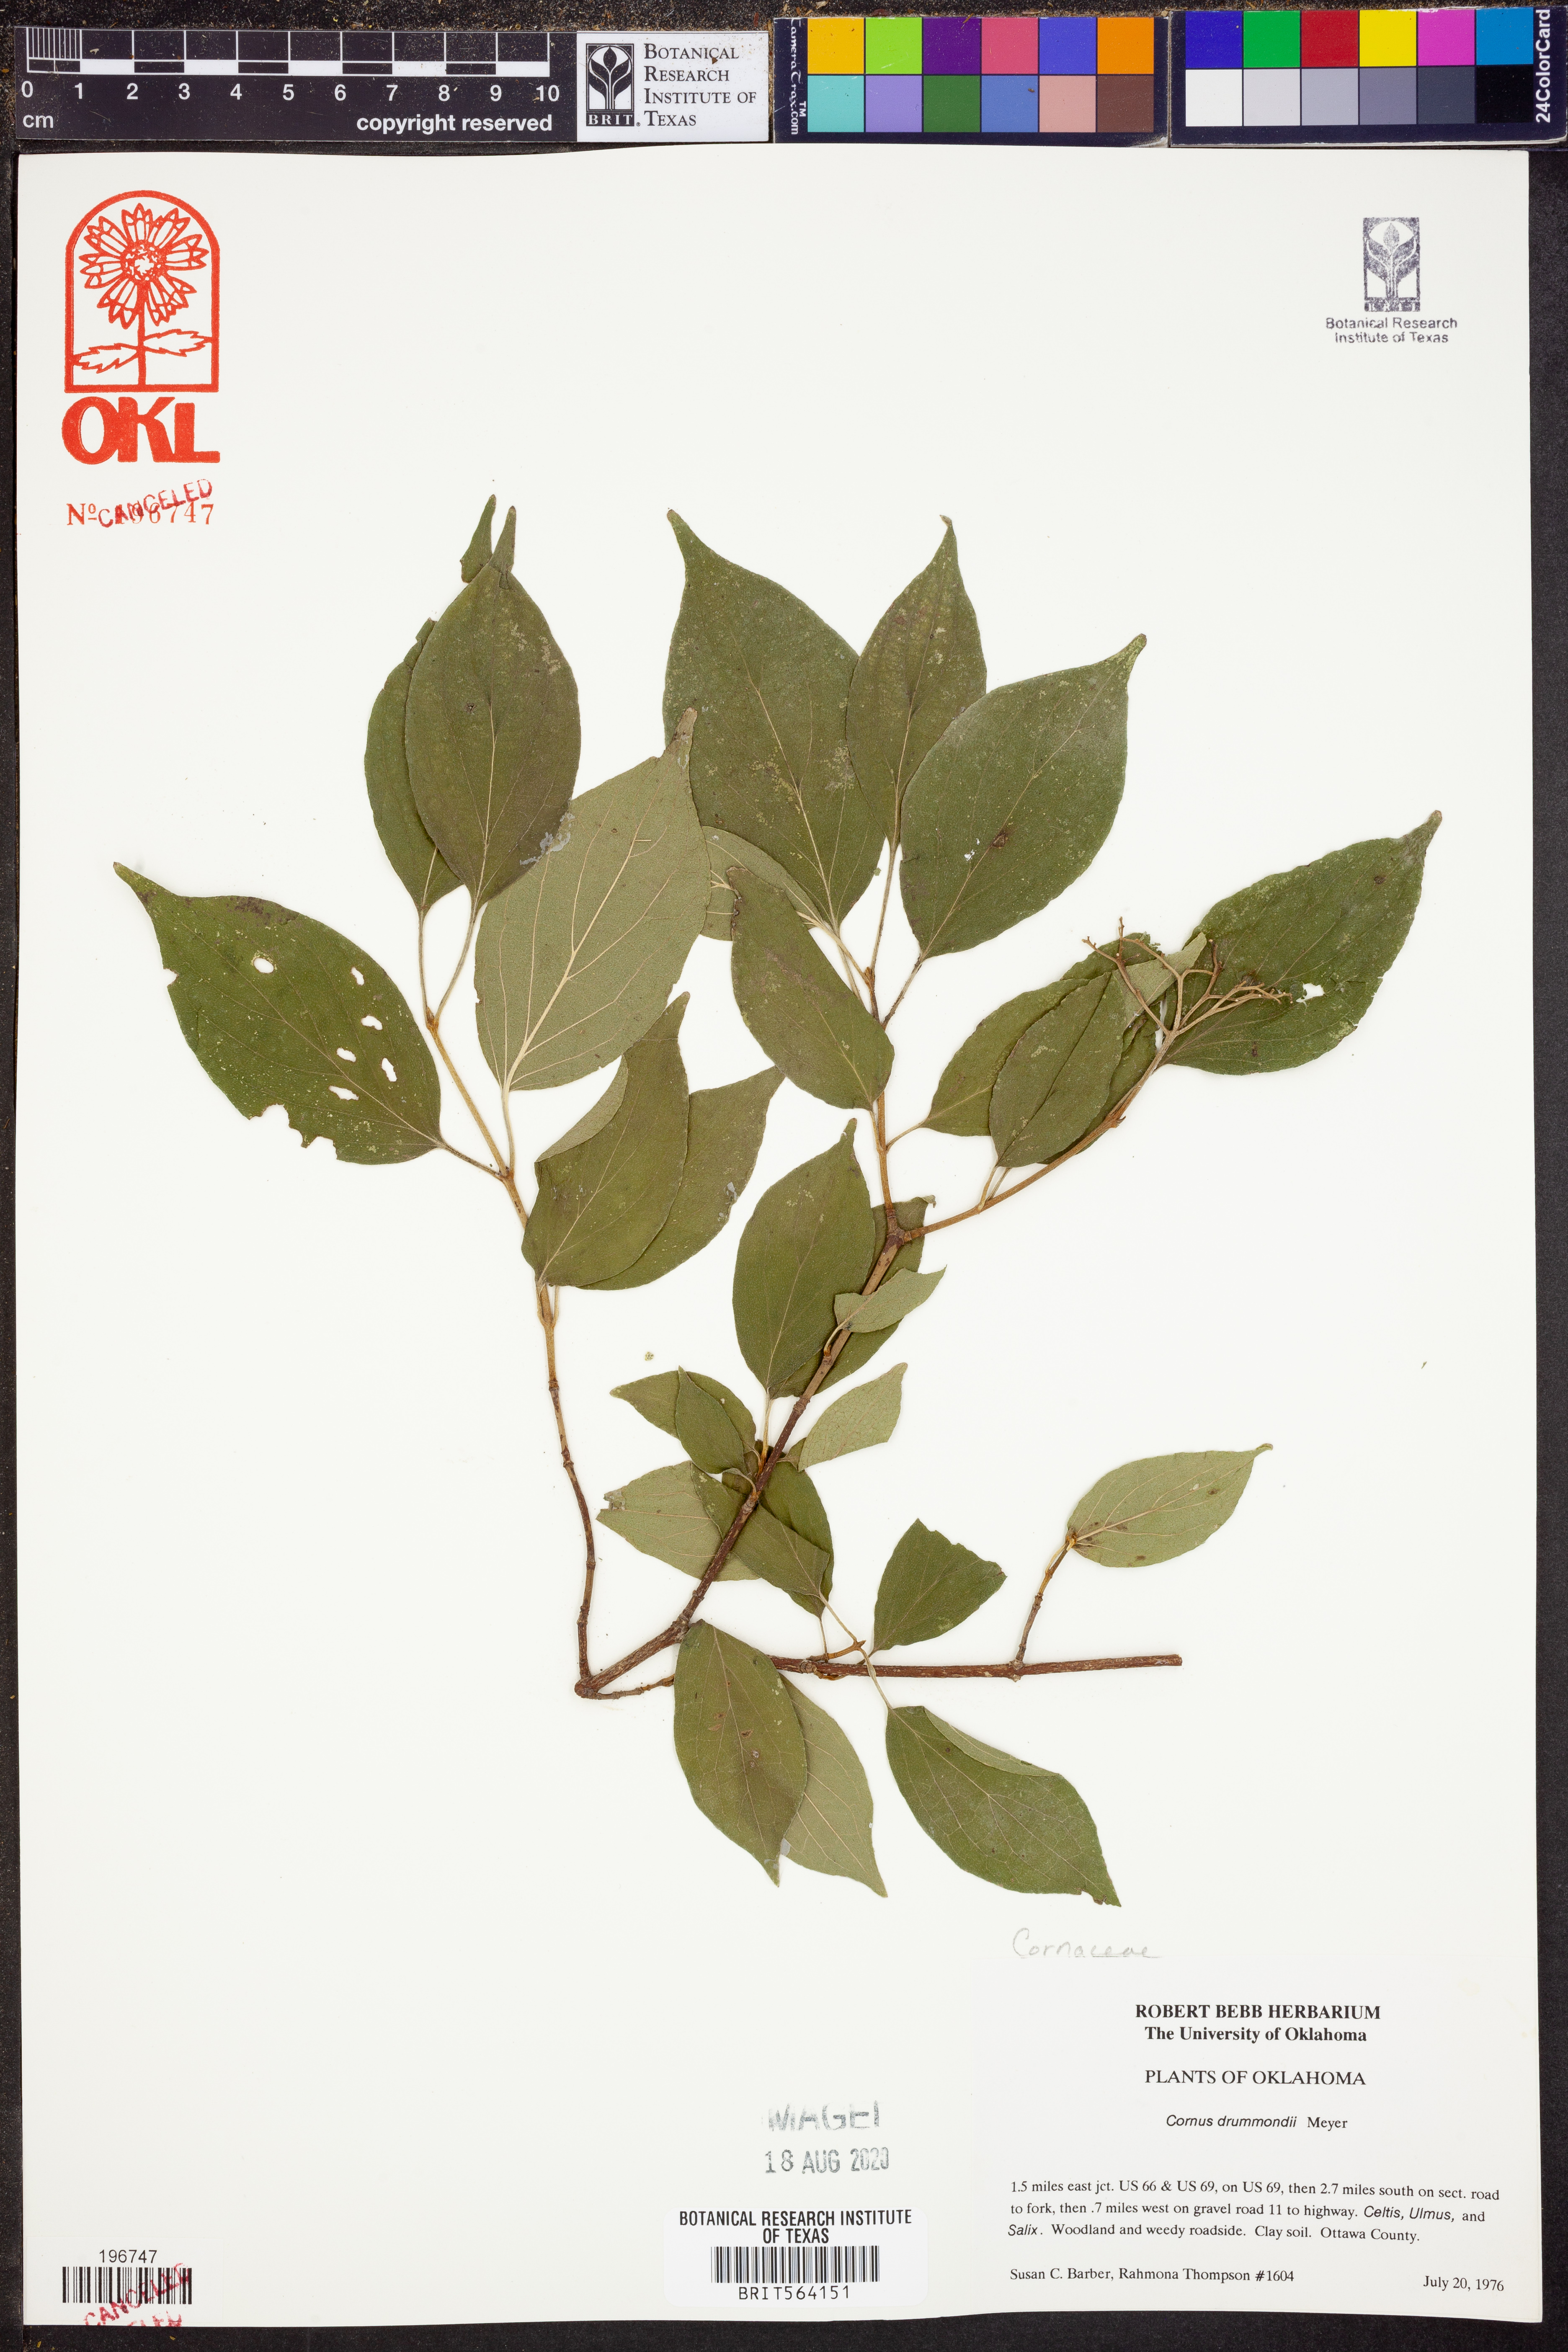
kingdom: Plantae
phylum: Tracheophyta
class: Magnoliopsida
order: Cornales
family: Cornaceae
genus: Cornus
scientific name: Cornus drummondii
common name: Rough-leaf dogwood
